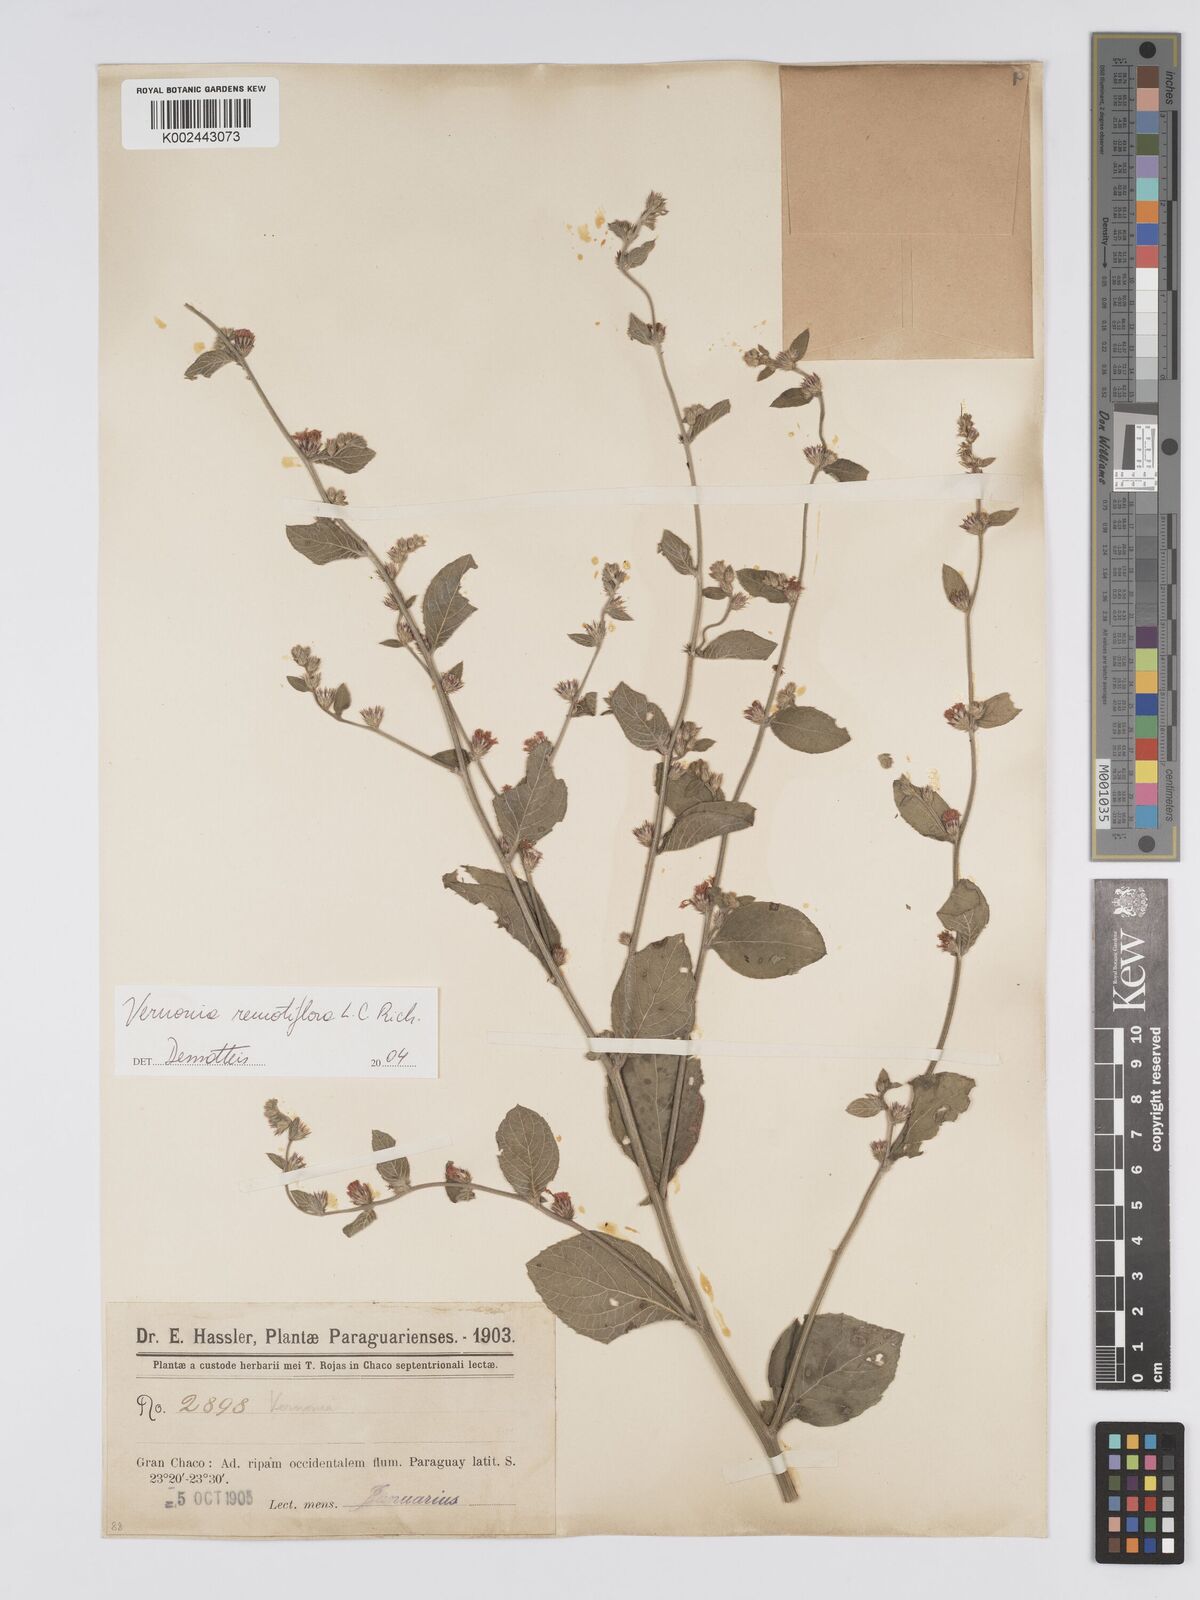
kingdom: Plantae
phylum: Tracheophyta
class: Magnoliopsida
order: Asterales
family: Asteraceae
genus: Lepidaploa
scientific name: Lepidaploa remotiflora
